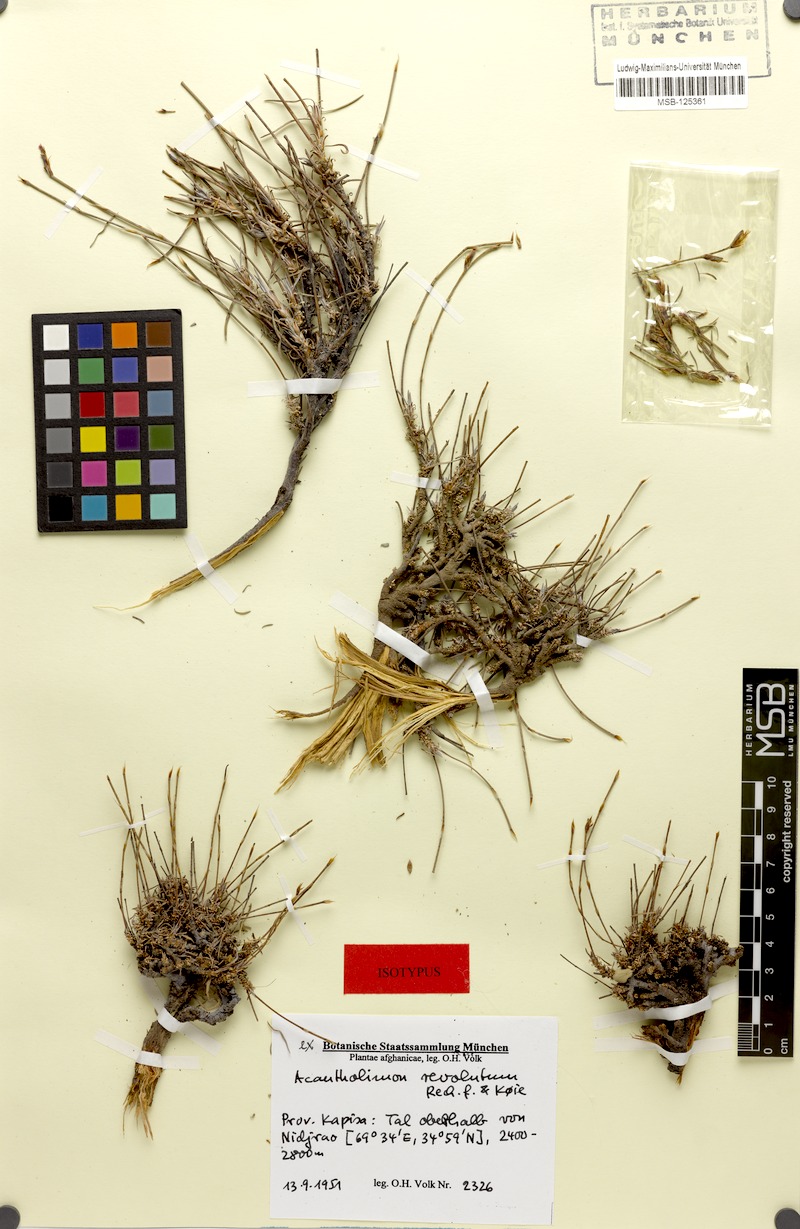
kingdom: Plantae
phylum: Tracheophyta
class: Magnoliopsida
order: Caryophyllales
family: Plumbaginaceae
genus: Acantholimon
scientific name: Acantholimon revolutum
